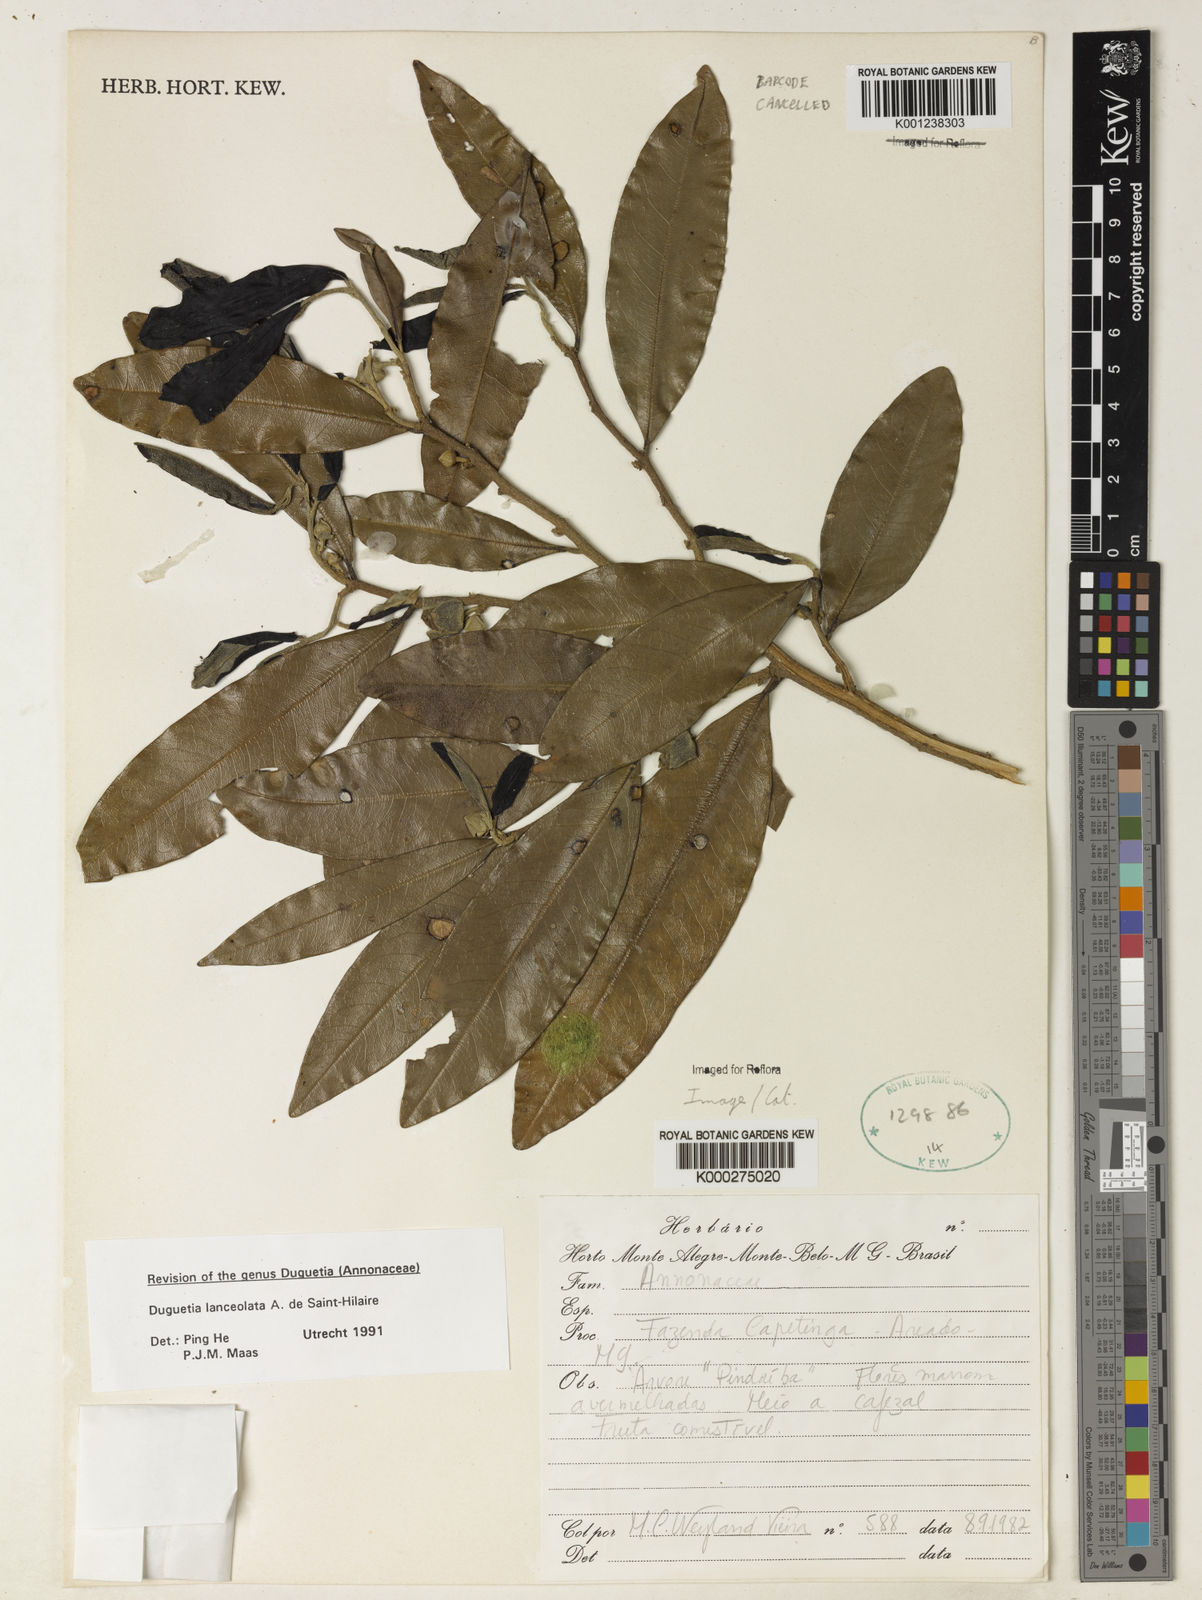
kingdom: Plantae
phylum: Tracheophyta
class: Magnoliopsida
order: Magnoliales
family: Annonaceae
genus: Duguetia
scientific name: Duguetia lanceolata
